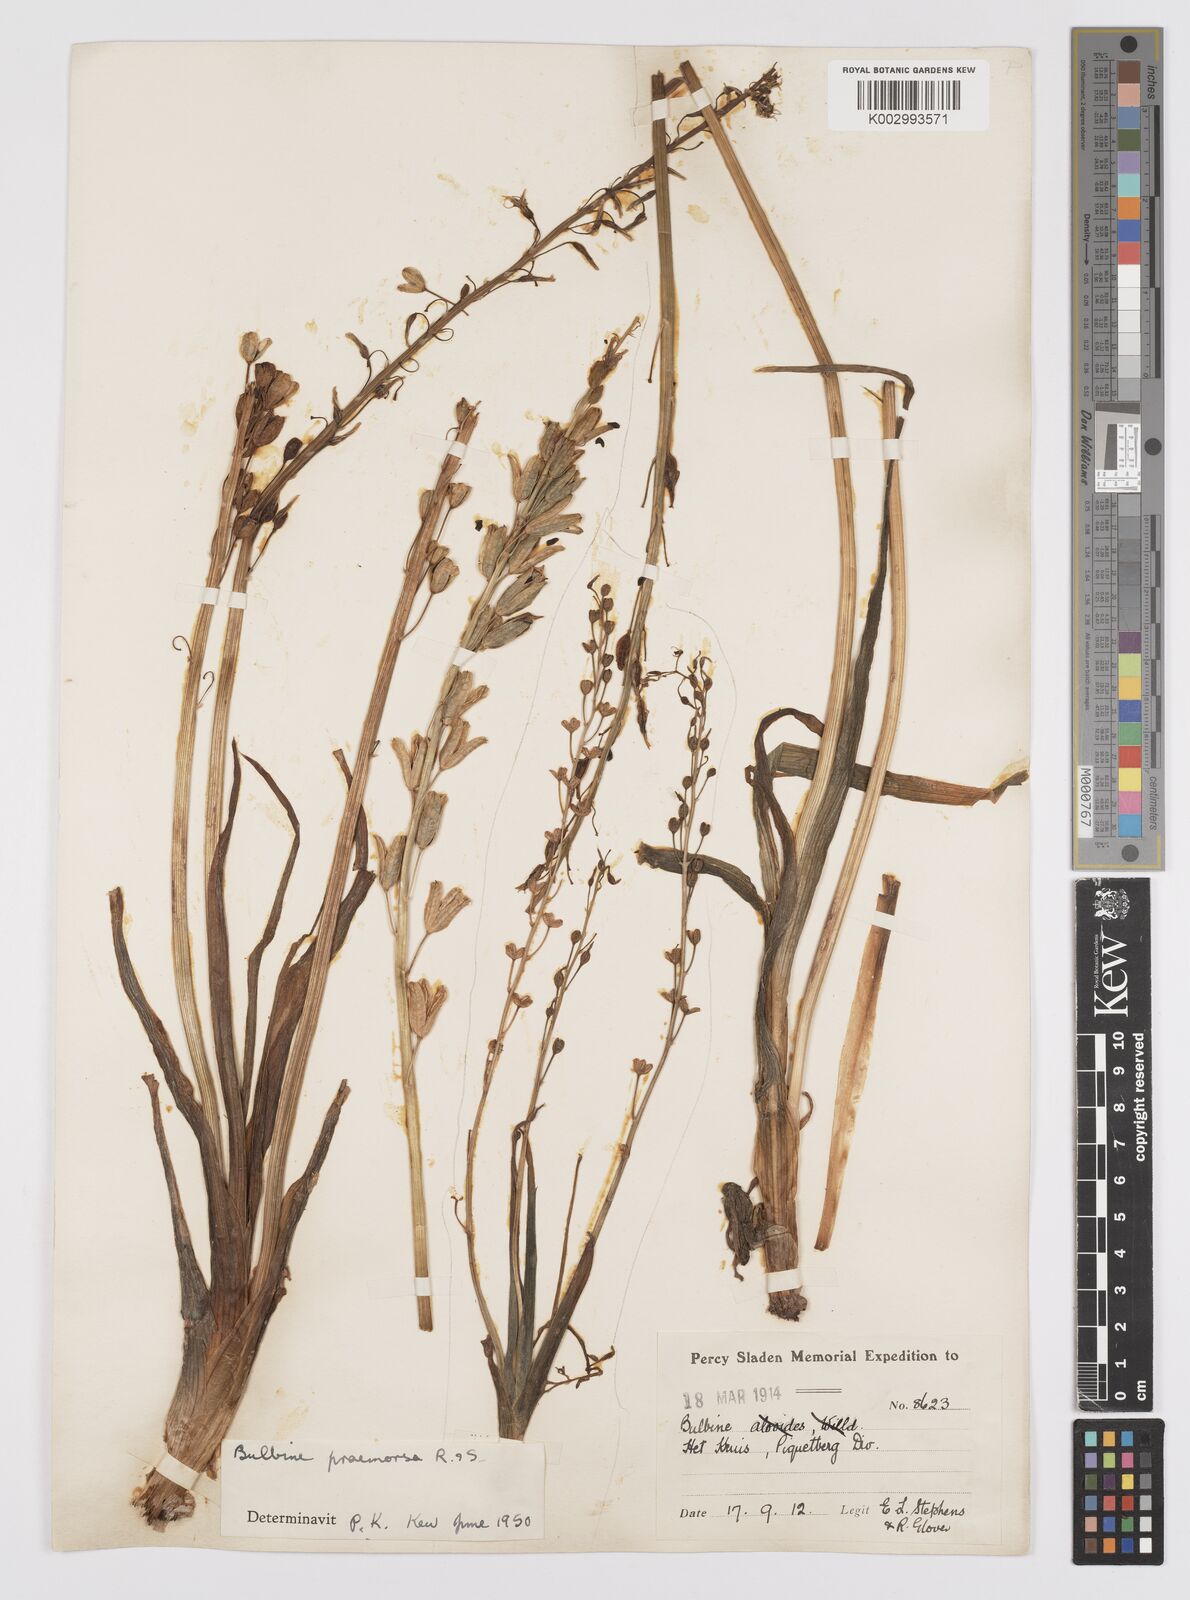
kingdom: Plantae
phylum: Tracheophyta
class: Liliopsida
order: Asparagales
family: Asphodelaceae
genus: Bulbine
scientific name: Bulbine praemorsa
